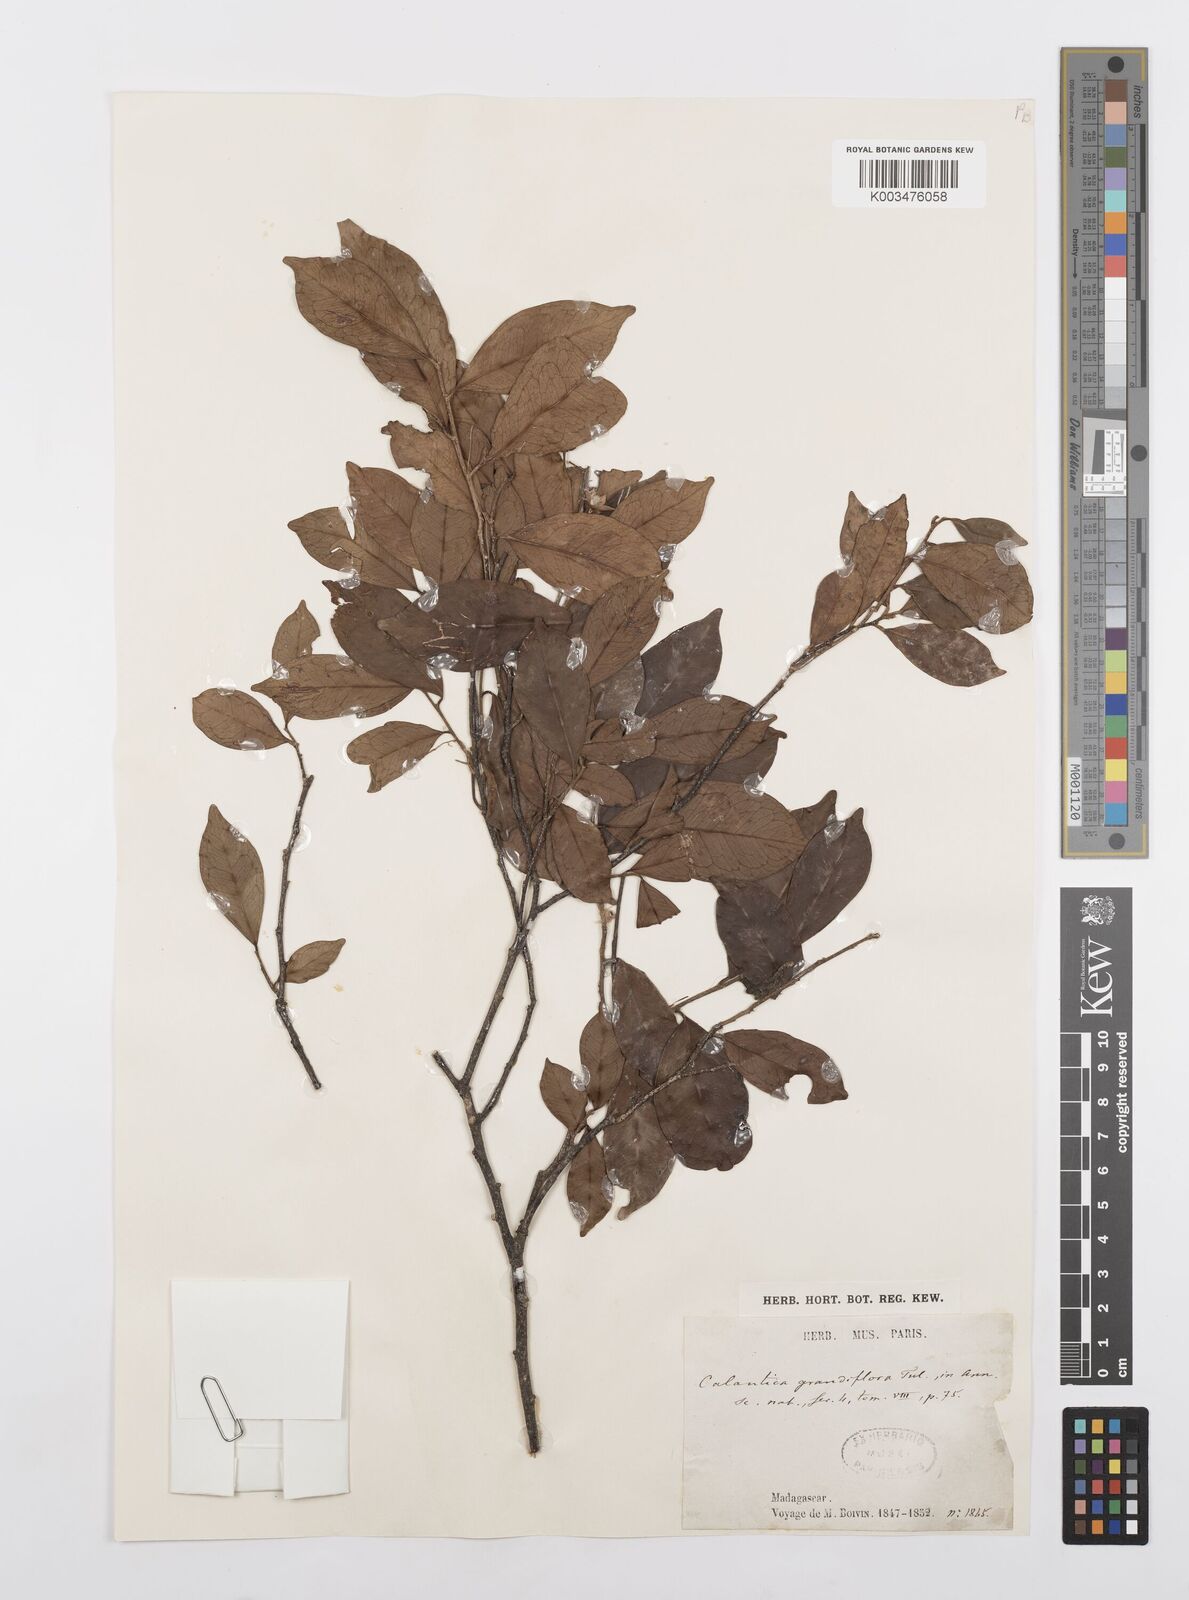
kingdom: Plantae
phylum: Tracheophyta
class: Magnoliopsida
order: Malpighiales
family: Salicaceae
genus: Calantica
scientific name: Calantica grandiflora
